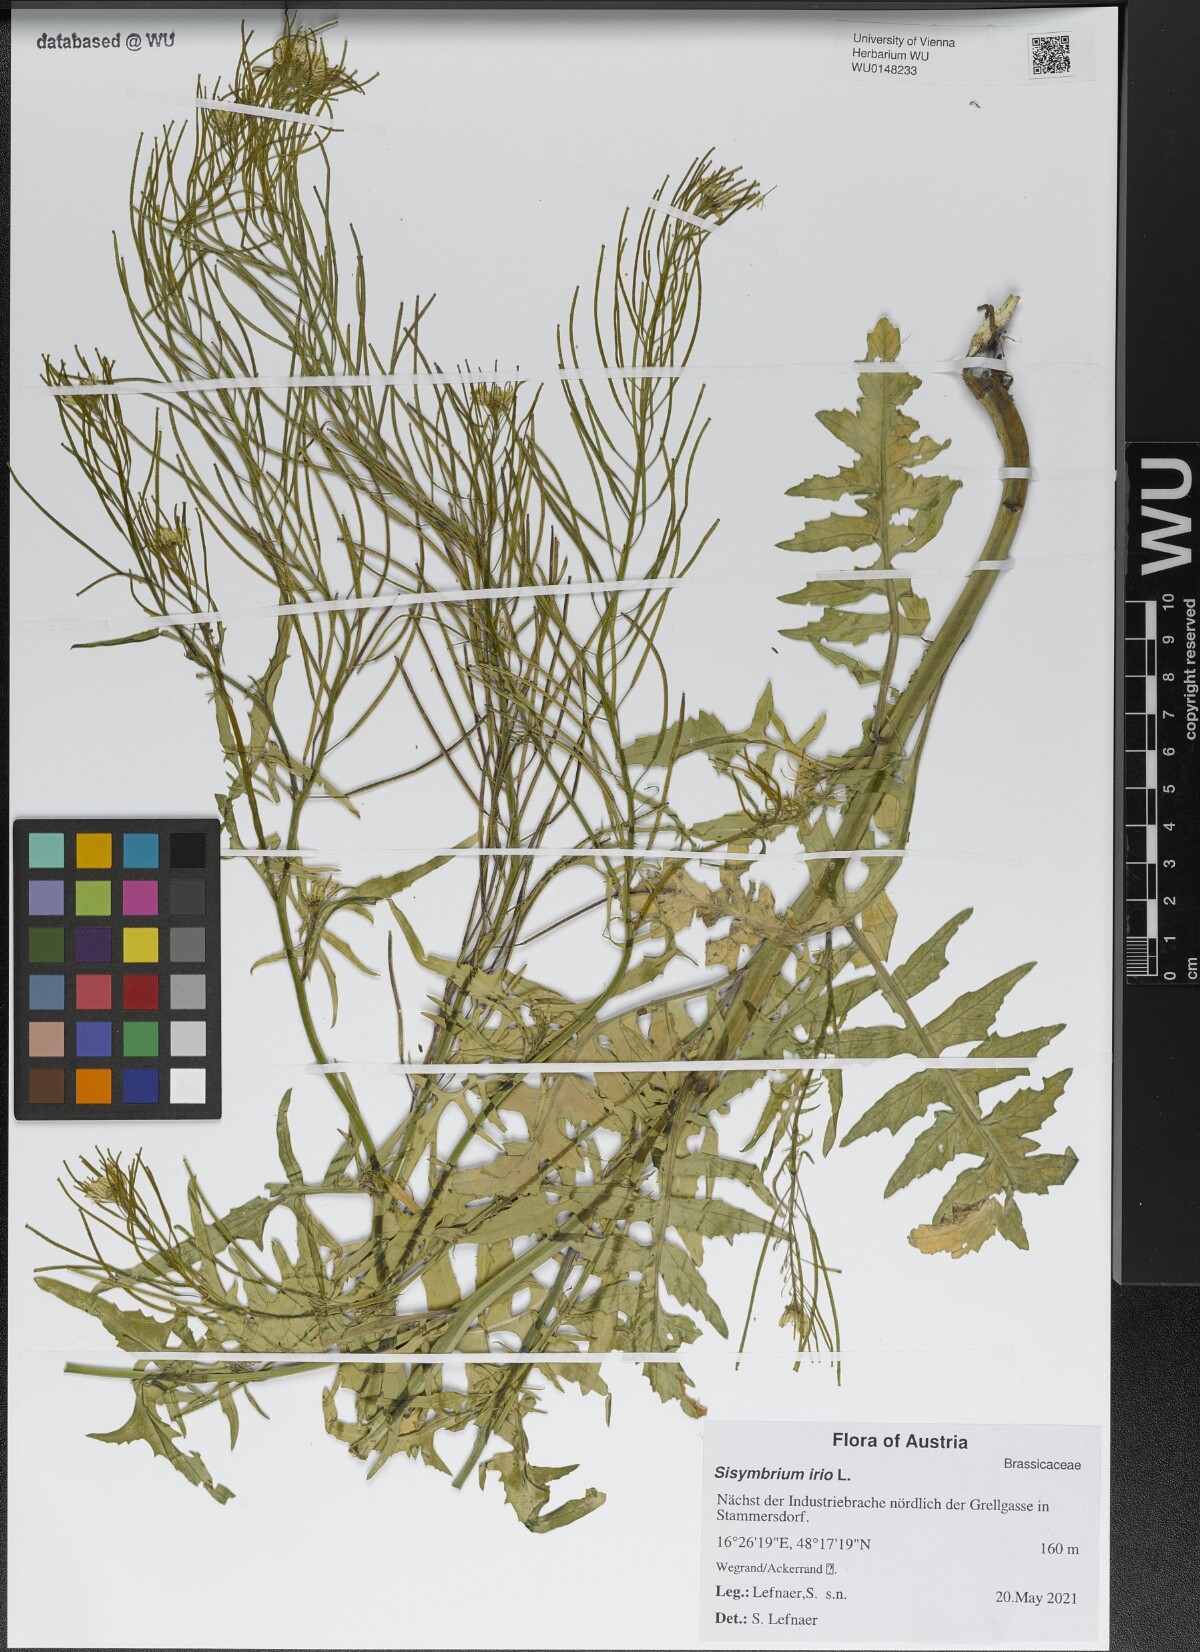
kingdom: Plantae
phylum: Tracheophyta
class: Magnoliopsida
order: Brassicales
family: Brassicaceae
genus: Sisymbrium
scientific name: Sisymbrium irio
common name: London rocket
